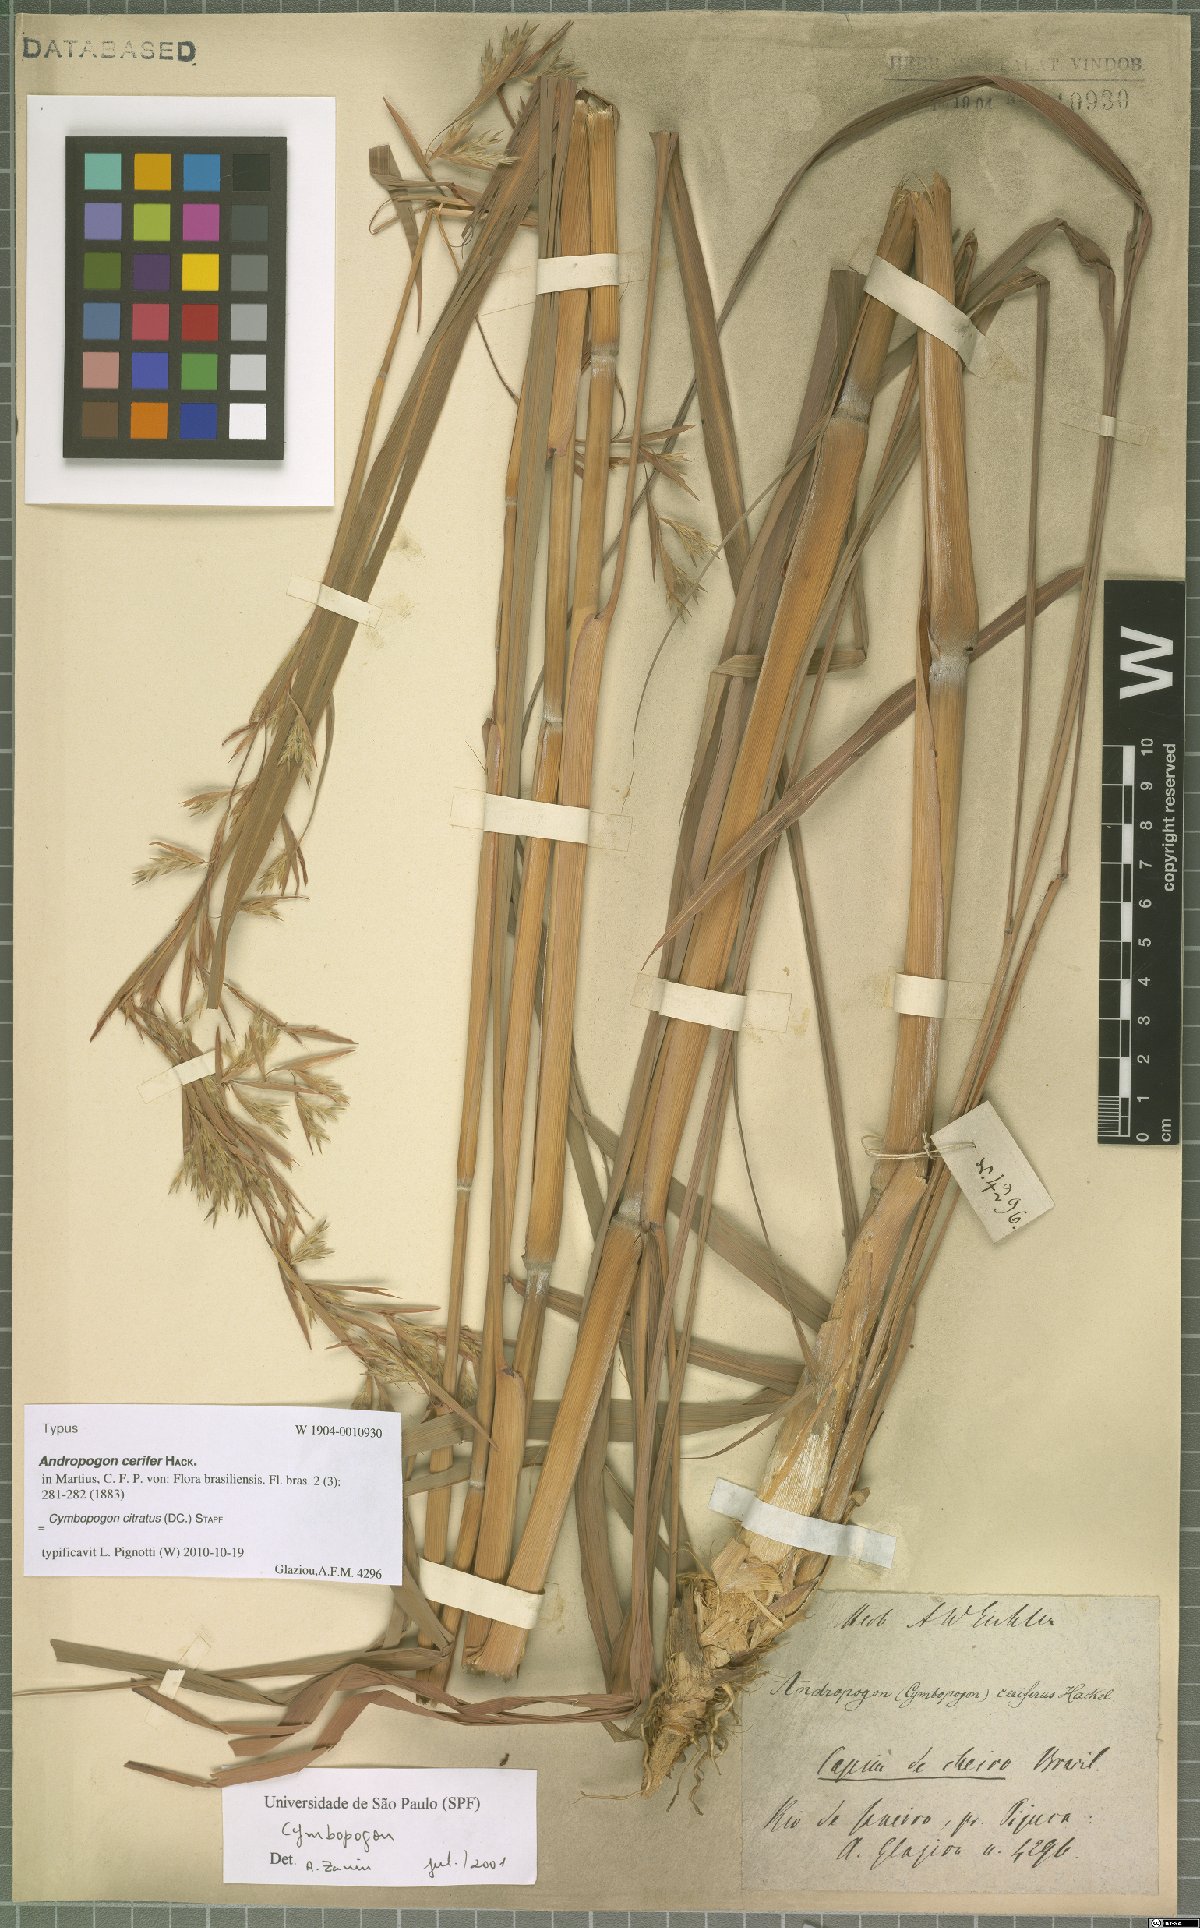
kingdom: Plantae
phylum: Tracheophyta
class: Liliopsida
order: Poales
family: Poaceae
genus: Cymbopogon
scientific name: Cymbopogon citratus
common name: Lemon grass
